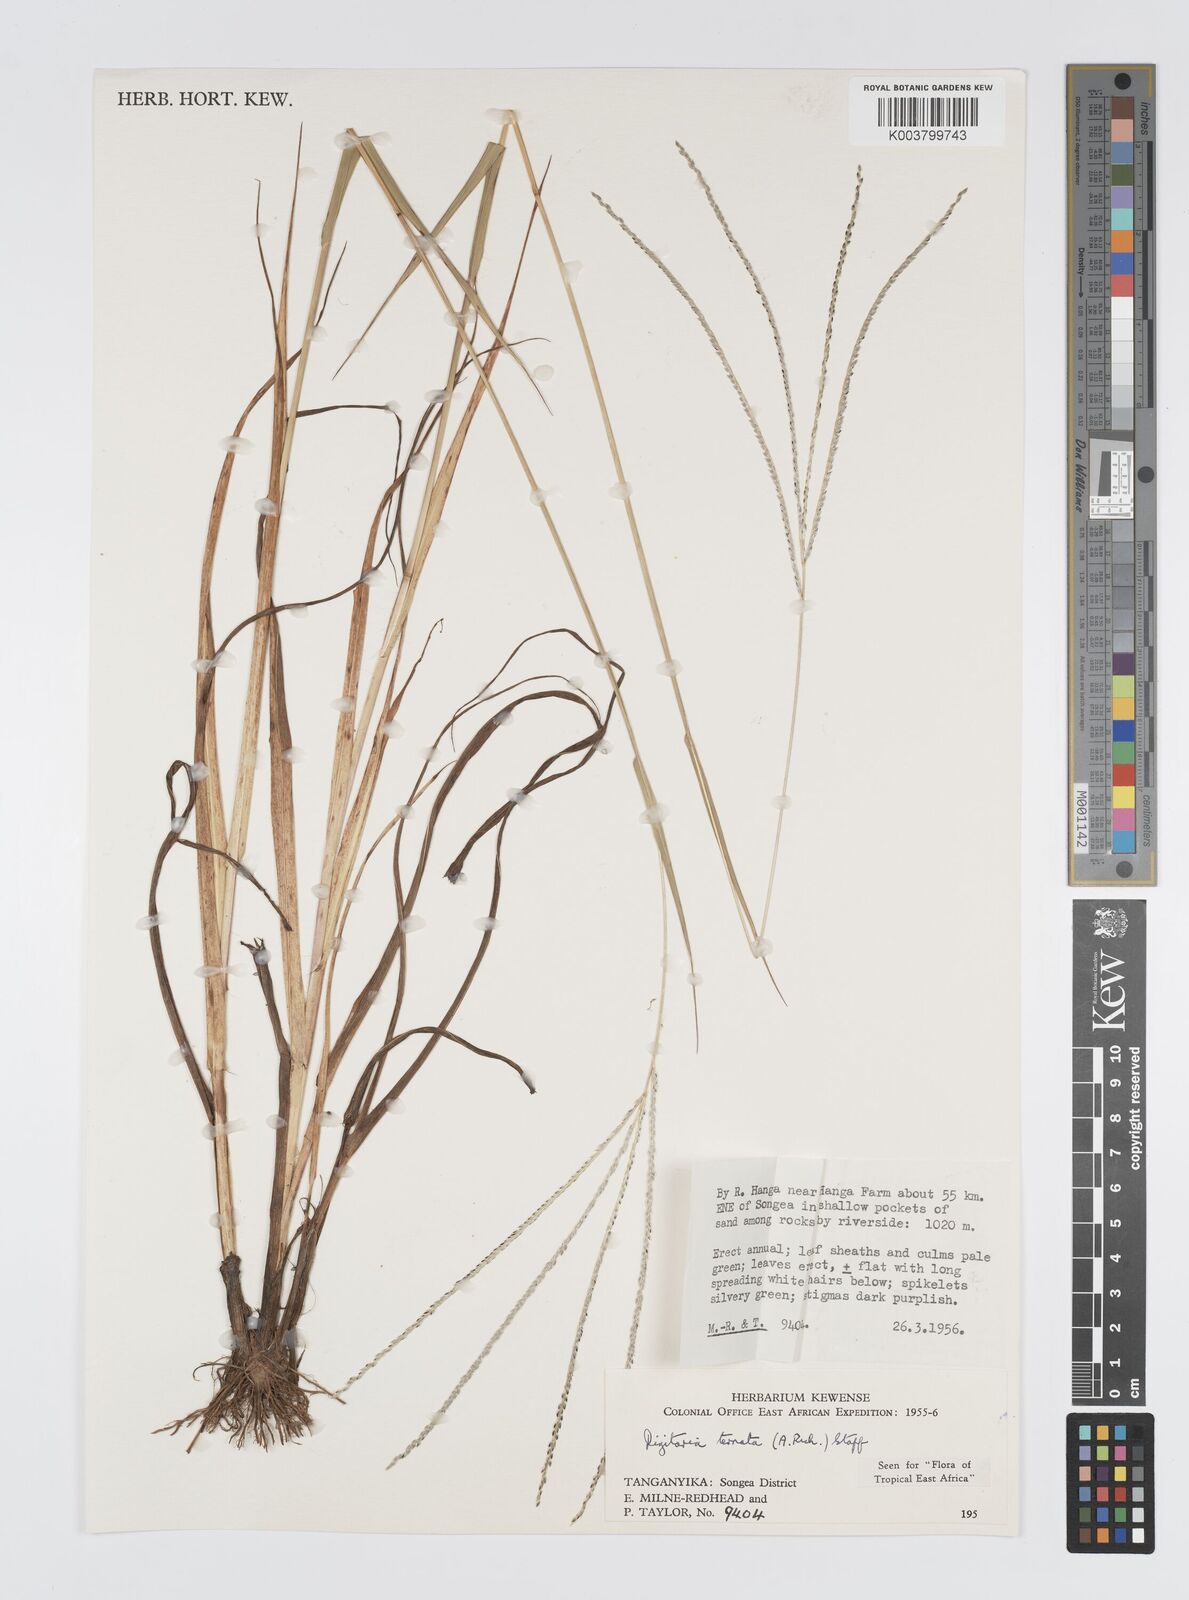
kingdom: Plantae
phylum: Tracheophyta
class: Liliopsida
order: Poales
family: Poaceae
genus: Digitaria
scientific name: Digitaria ternata
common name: Blackseed crabgrass
